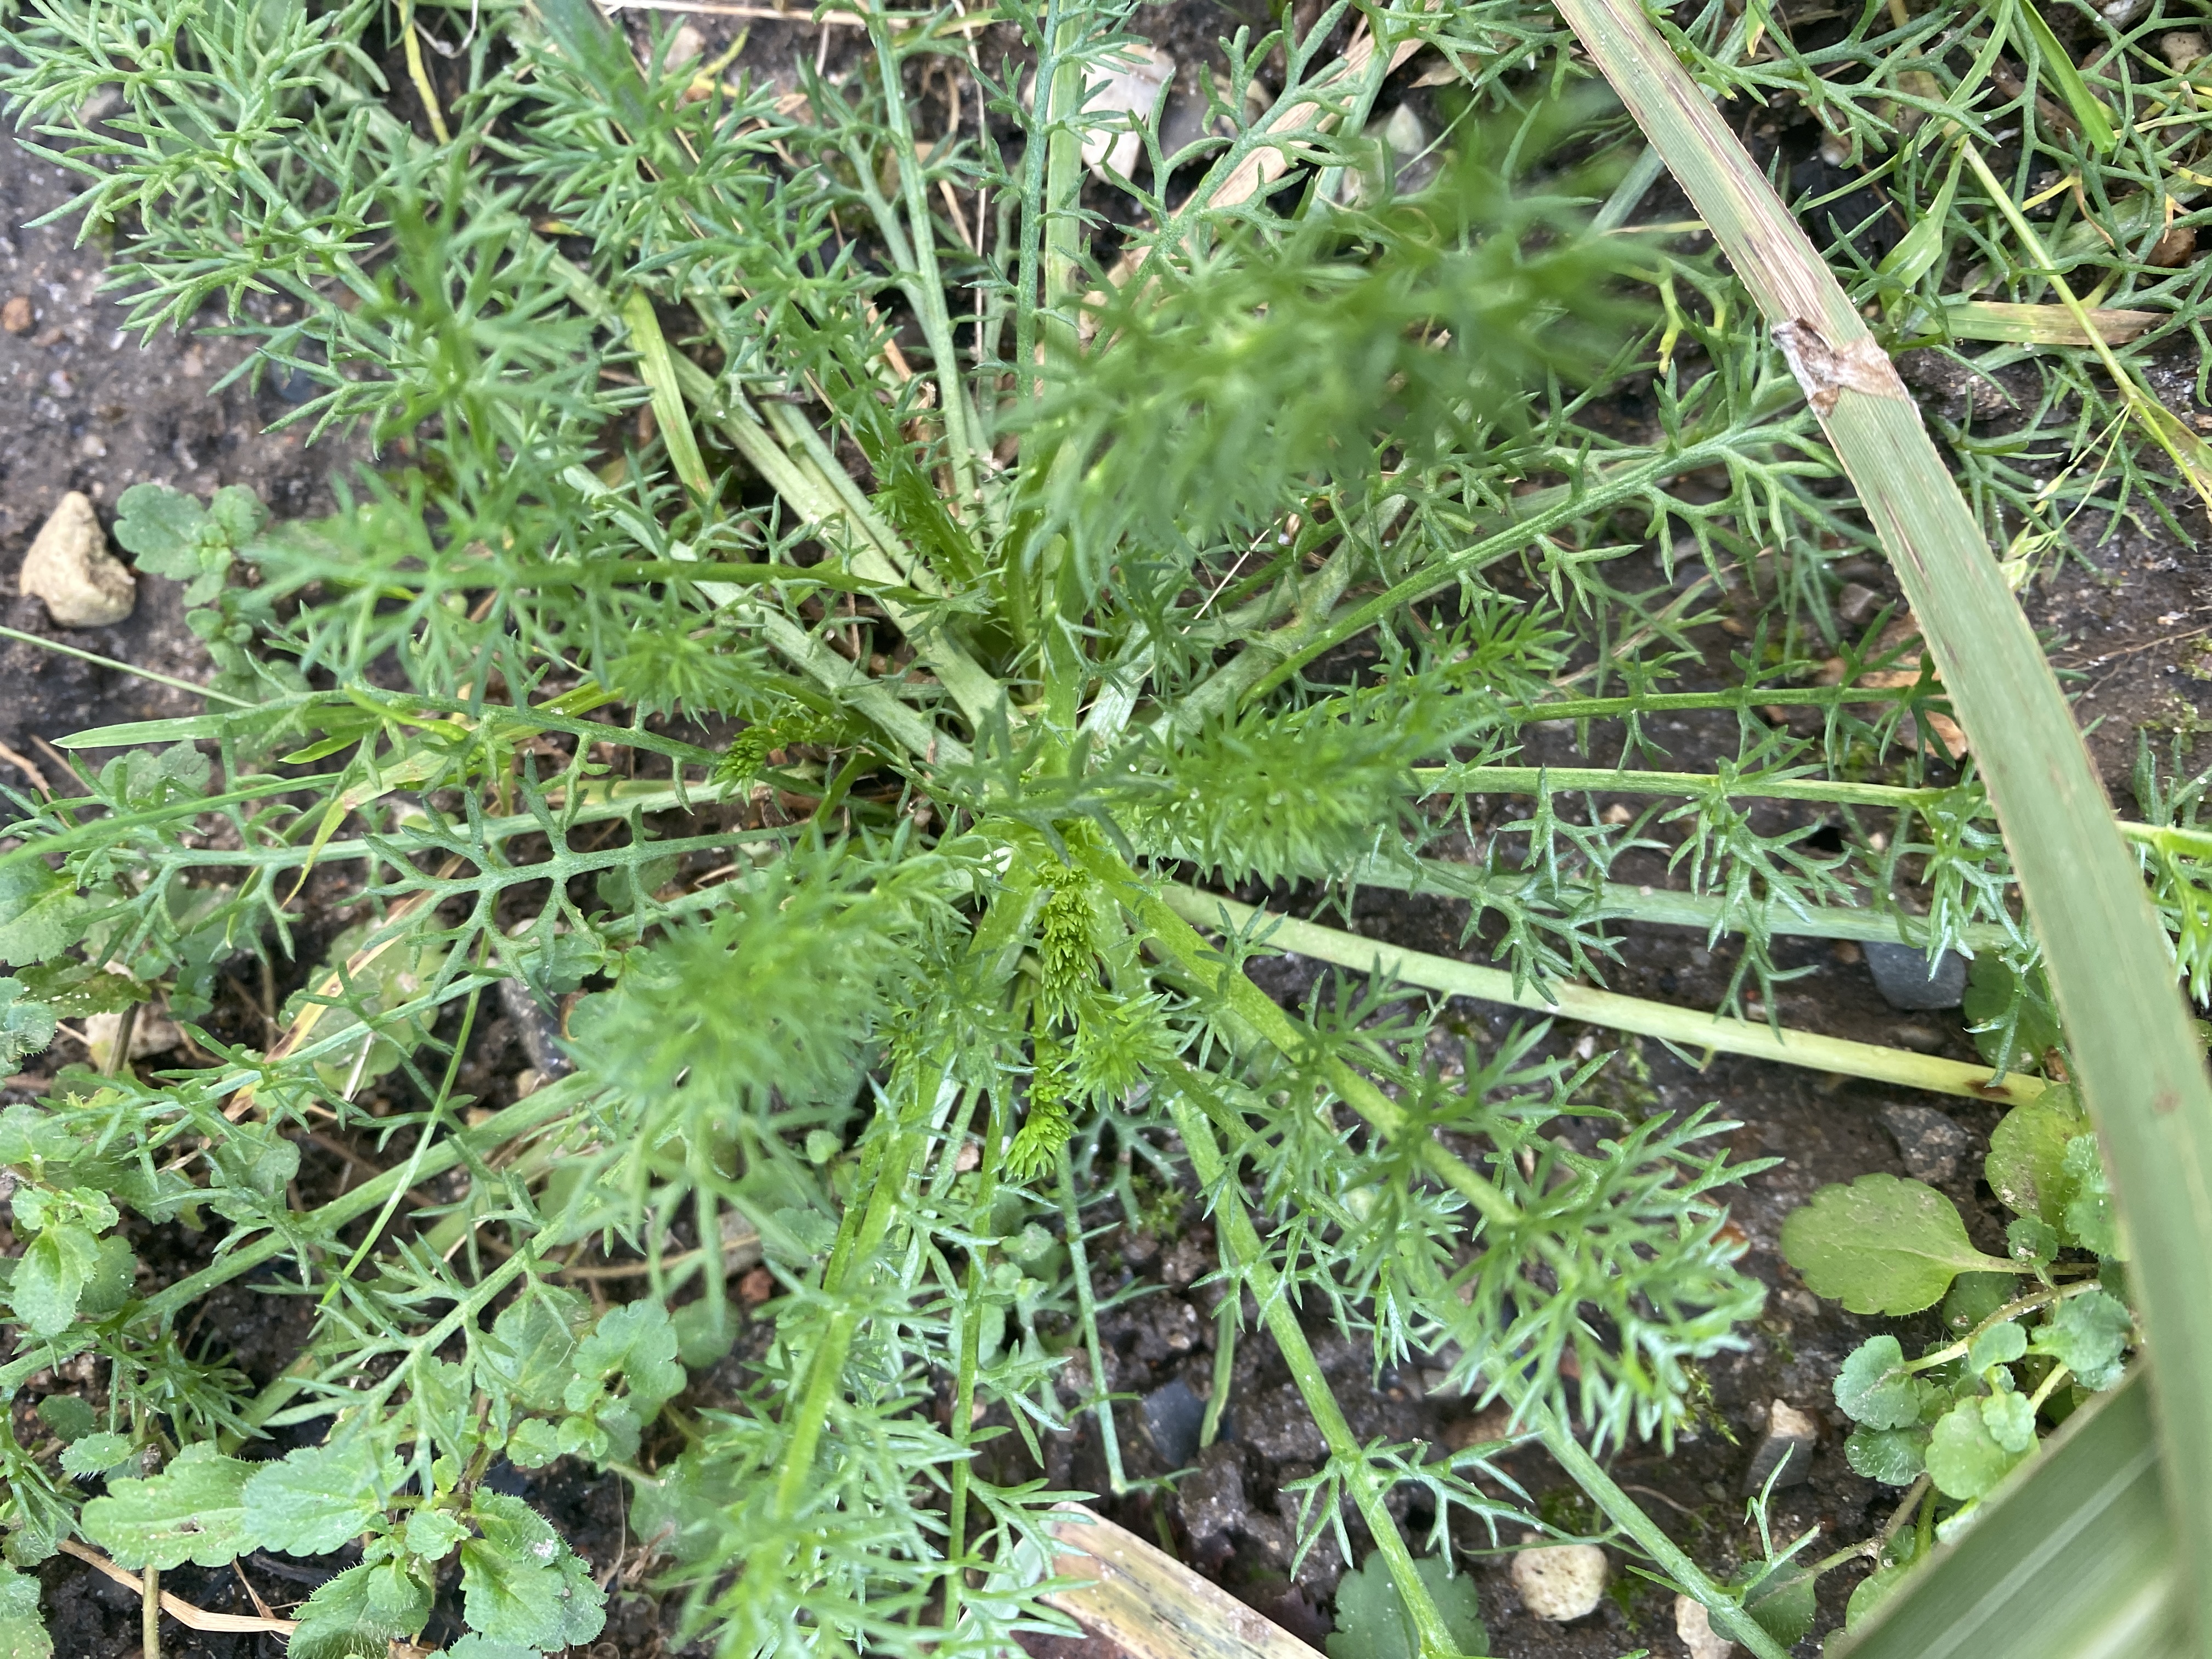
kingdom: Plantae
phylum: Tracheophyta
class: Magnoliopsida
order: Asterales
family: Asteraceae
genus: Tripleurospermum
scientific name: Tripleurospermum inodorum
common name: Lugtløs kamille
